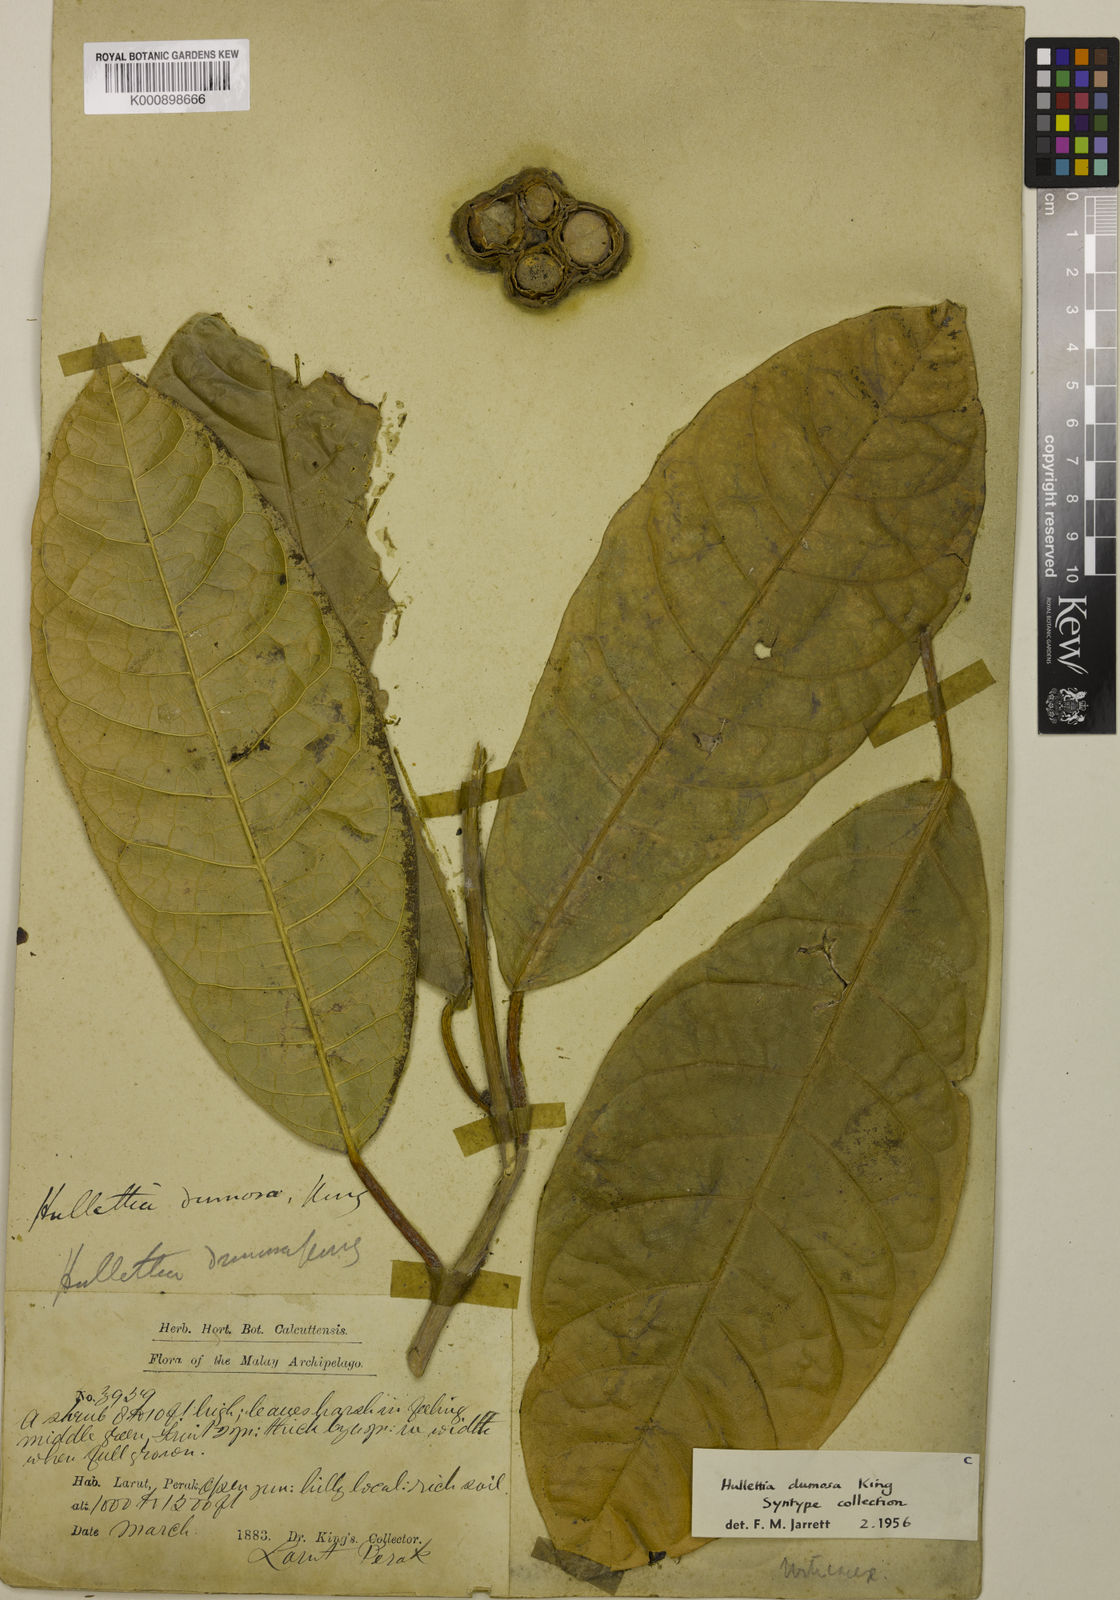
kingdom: Plantae
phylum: Tracheophyta
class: Magnoliopsida
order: Rosales
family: Moraceae
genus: Hullettia
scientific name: Hullettia
